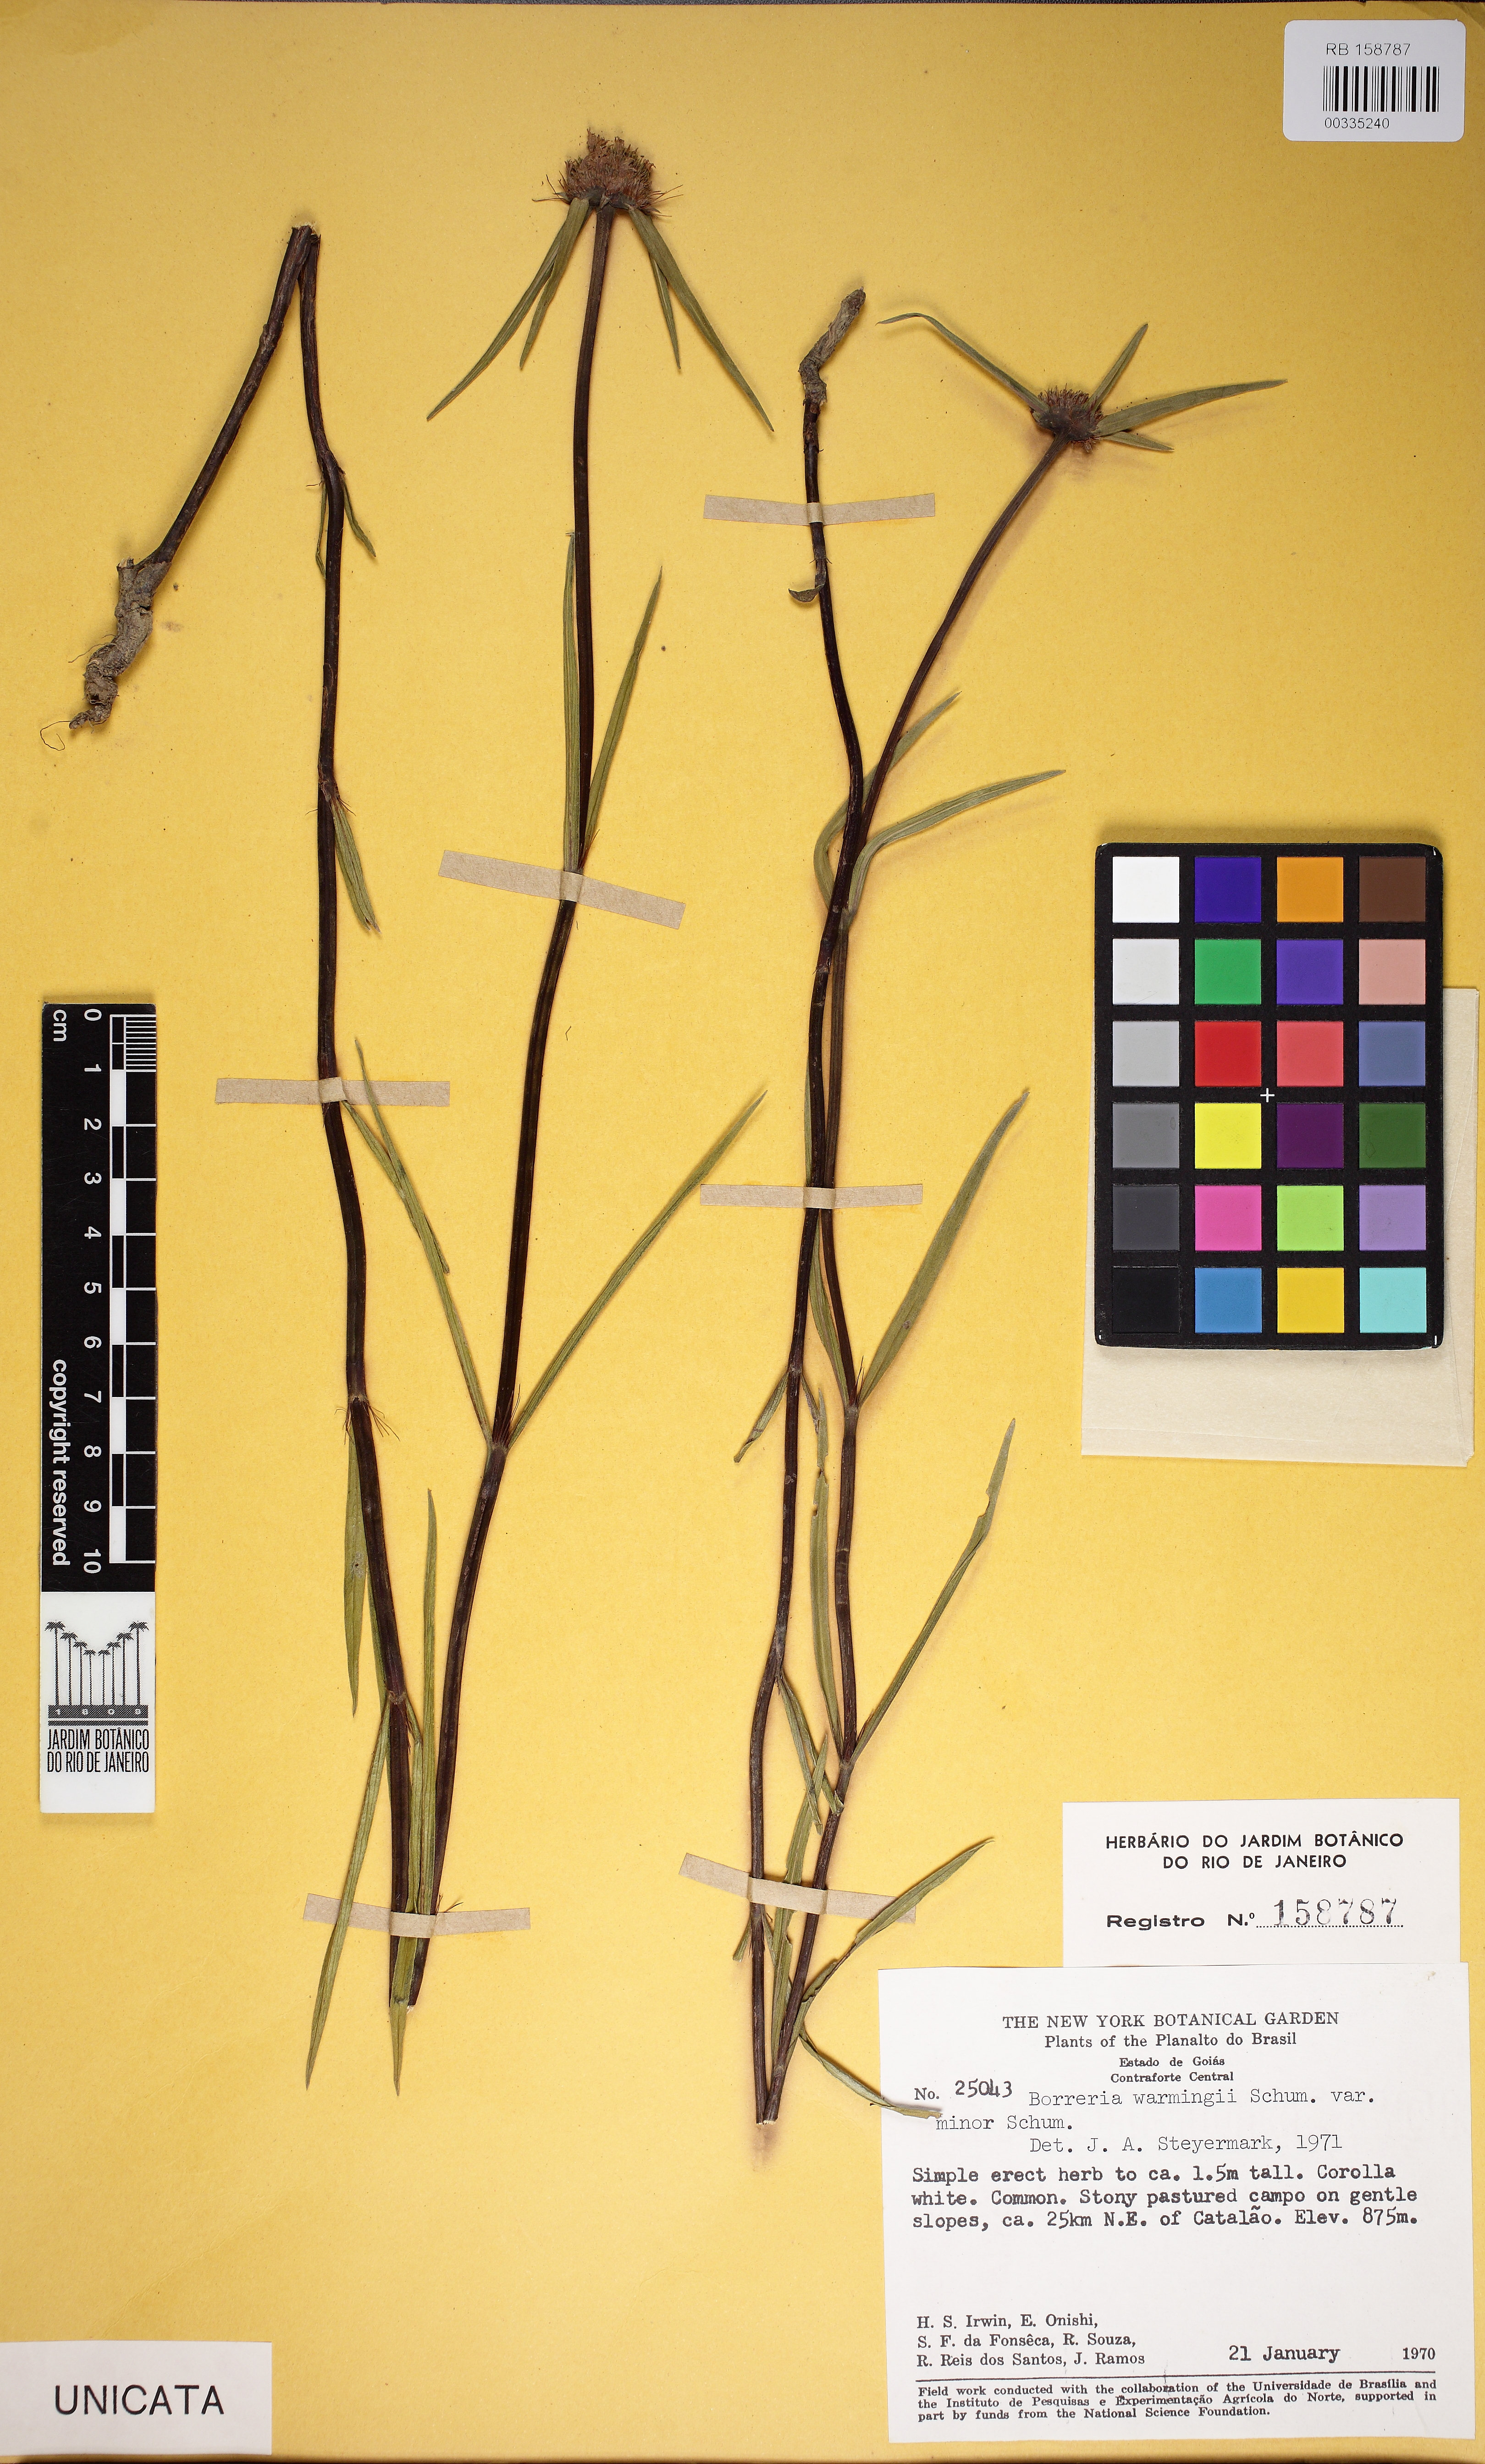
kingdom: Plantae
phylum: Tracheophyta
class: Magnoliopsida
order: Gentianales
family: Rubiaceae
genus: Spermacoce
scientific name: Spermacoce warmingii
